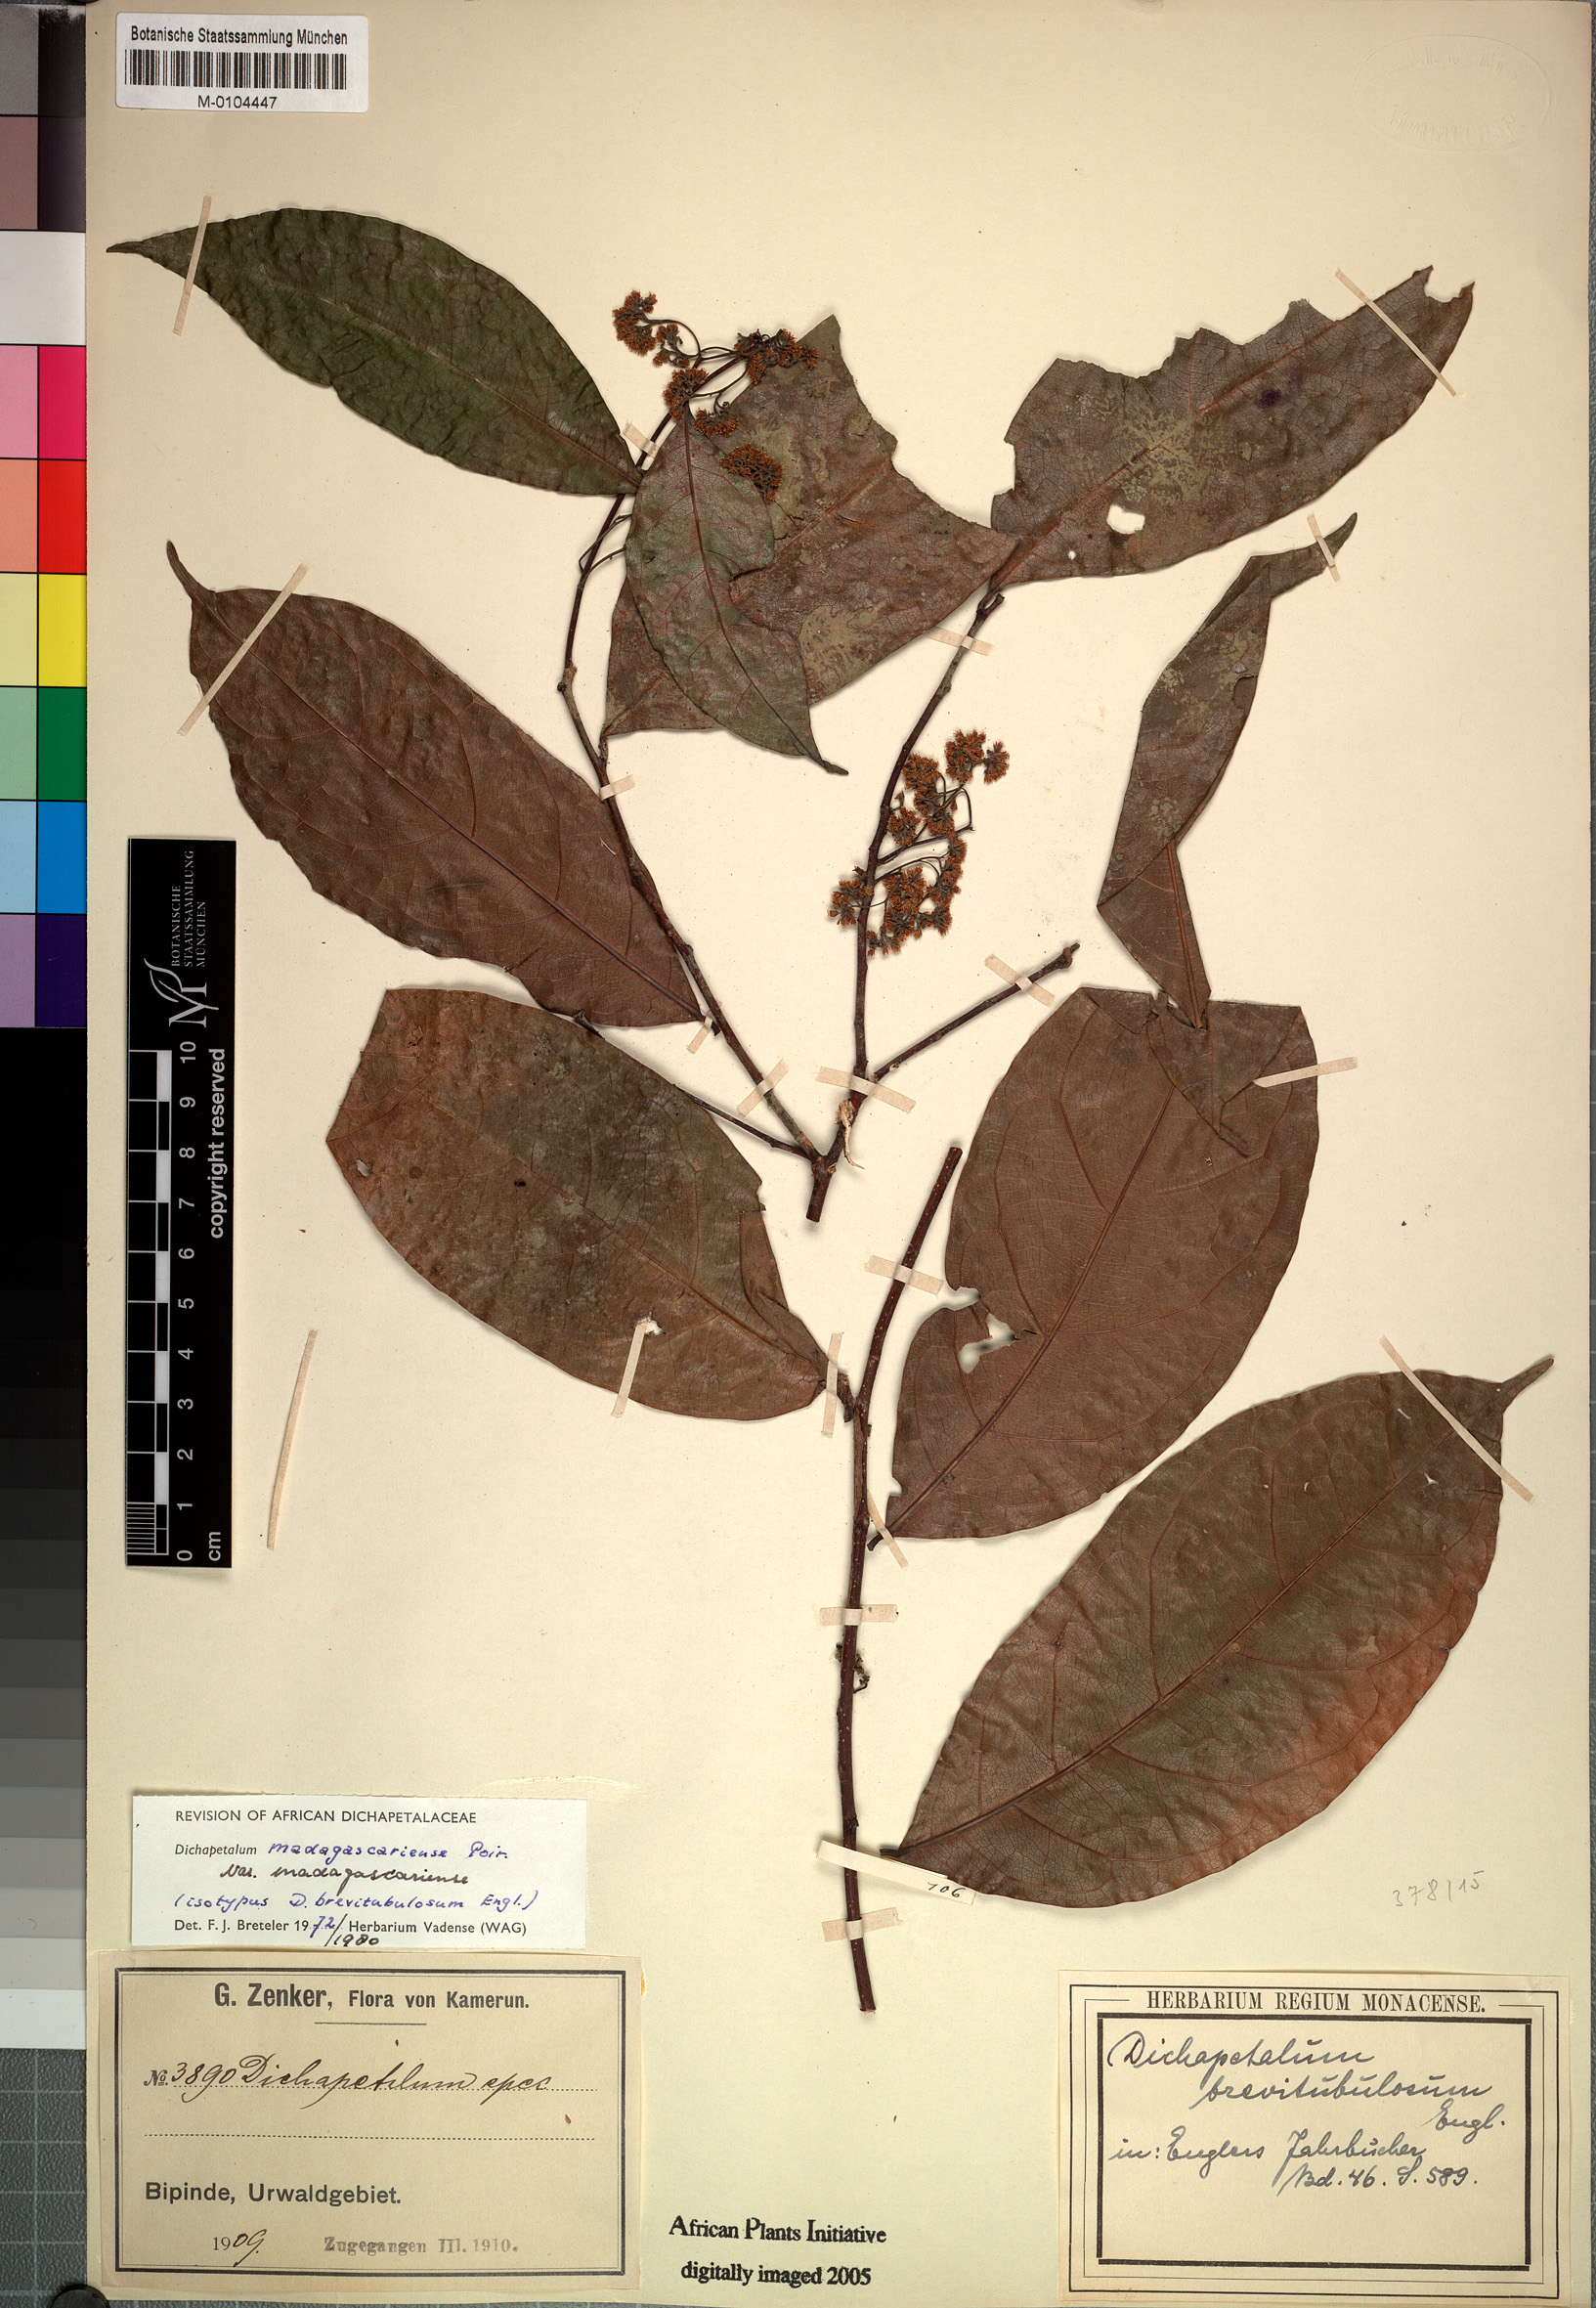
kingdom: Plantae
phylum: Tracheophyta
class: Magnoliopsida
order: Malpighiales
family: Dichapetalaceae
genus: Dichapetalum
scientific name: Dichapetalum madagascariense
